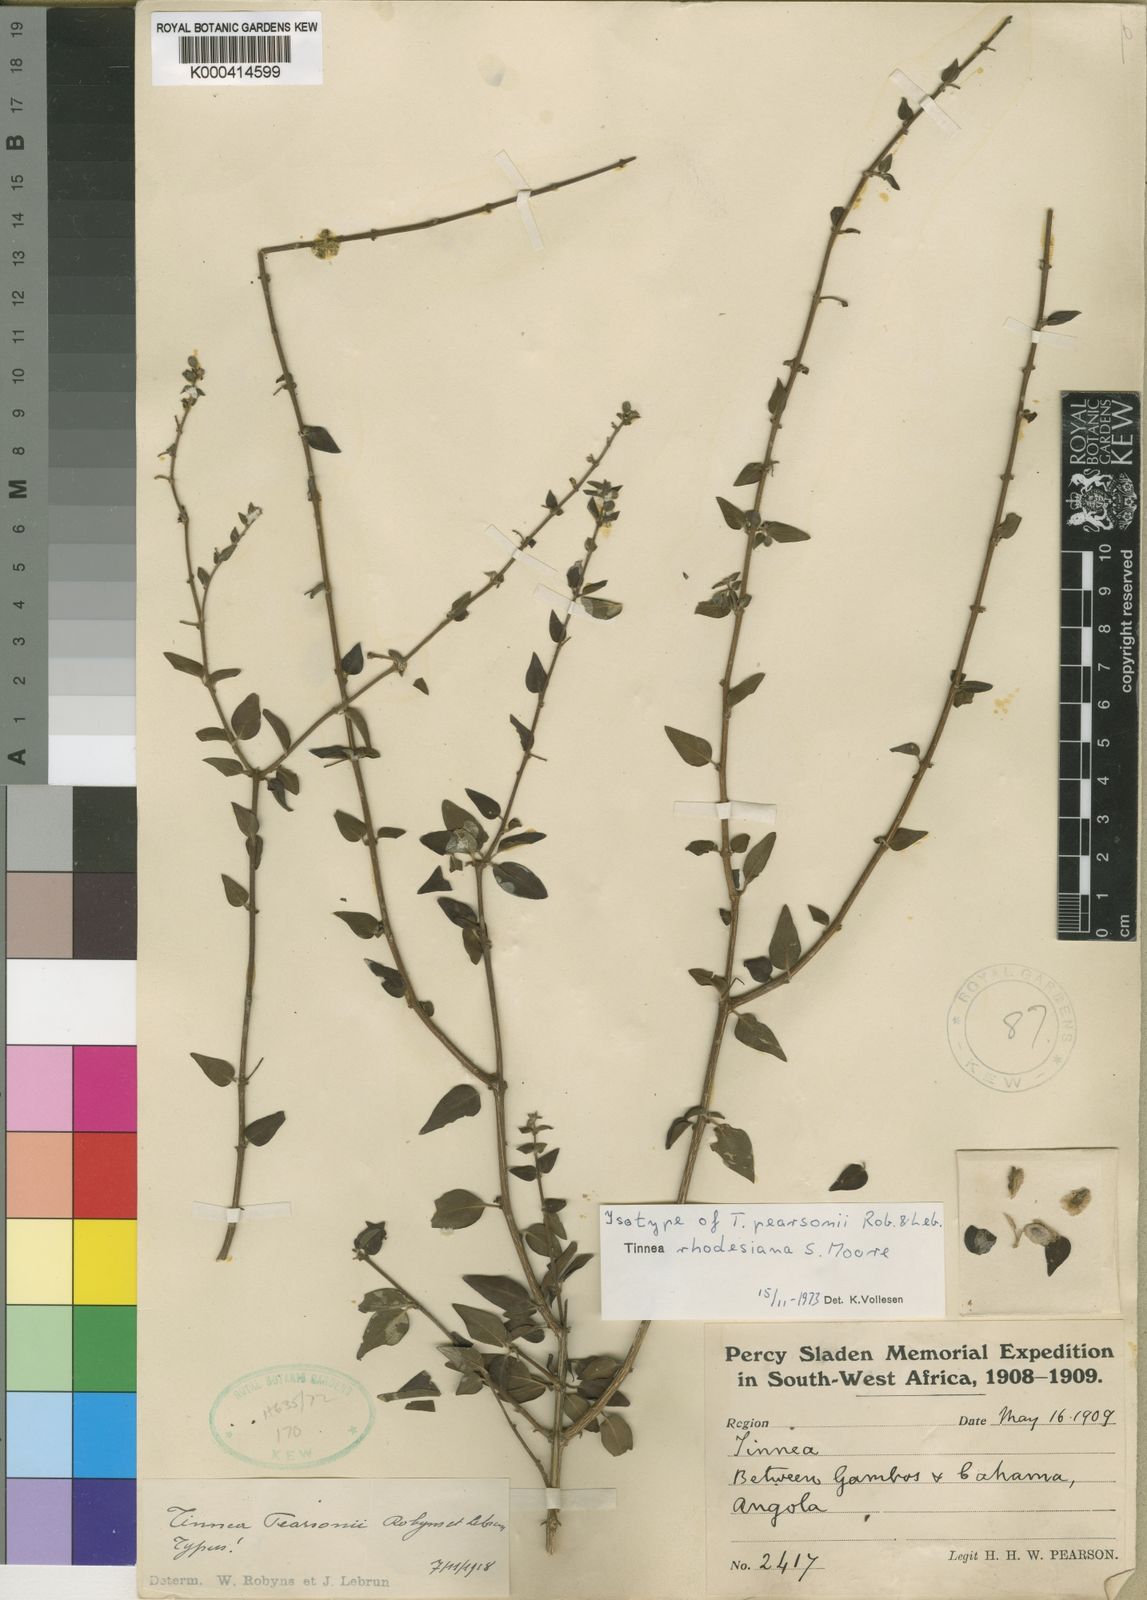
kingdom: Plantae
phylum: Tracheophyta
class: Magnoliopsida
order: Lamiales
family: Lamiaceae
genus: Tinnea
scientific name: Tinnea rhodesiana
